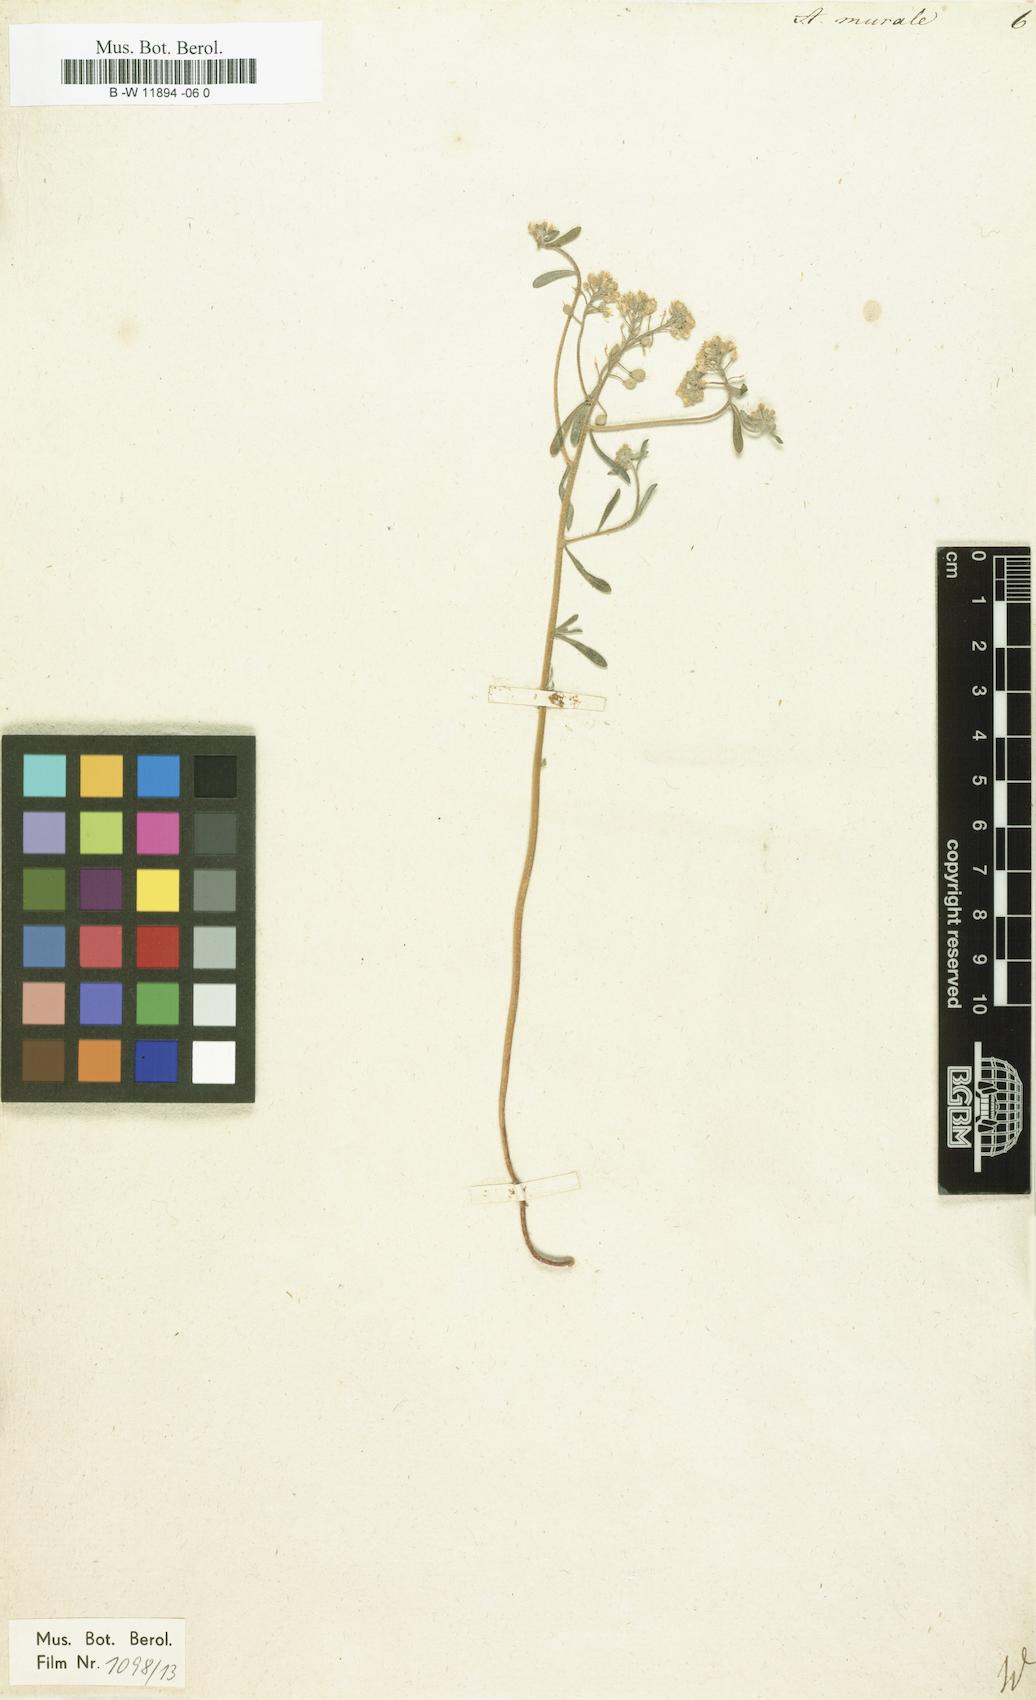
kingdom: Plantae
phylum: Tracheophyta
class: Magnoliopsida
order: Brassicales
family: Brassicaceae
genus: Odontarrhena
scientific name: Odontarrhena muralis
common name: Rock alyssum
